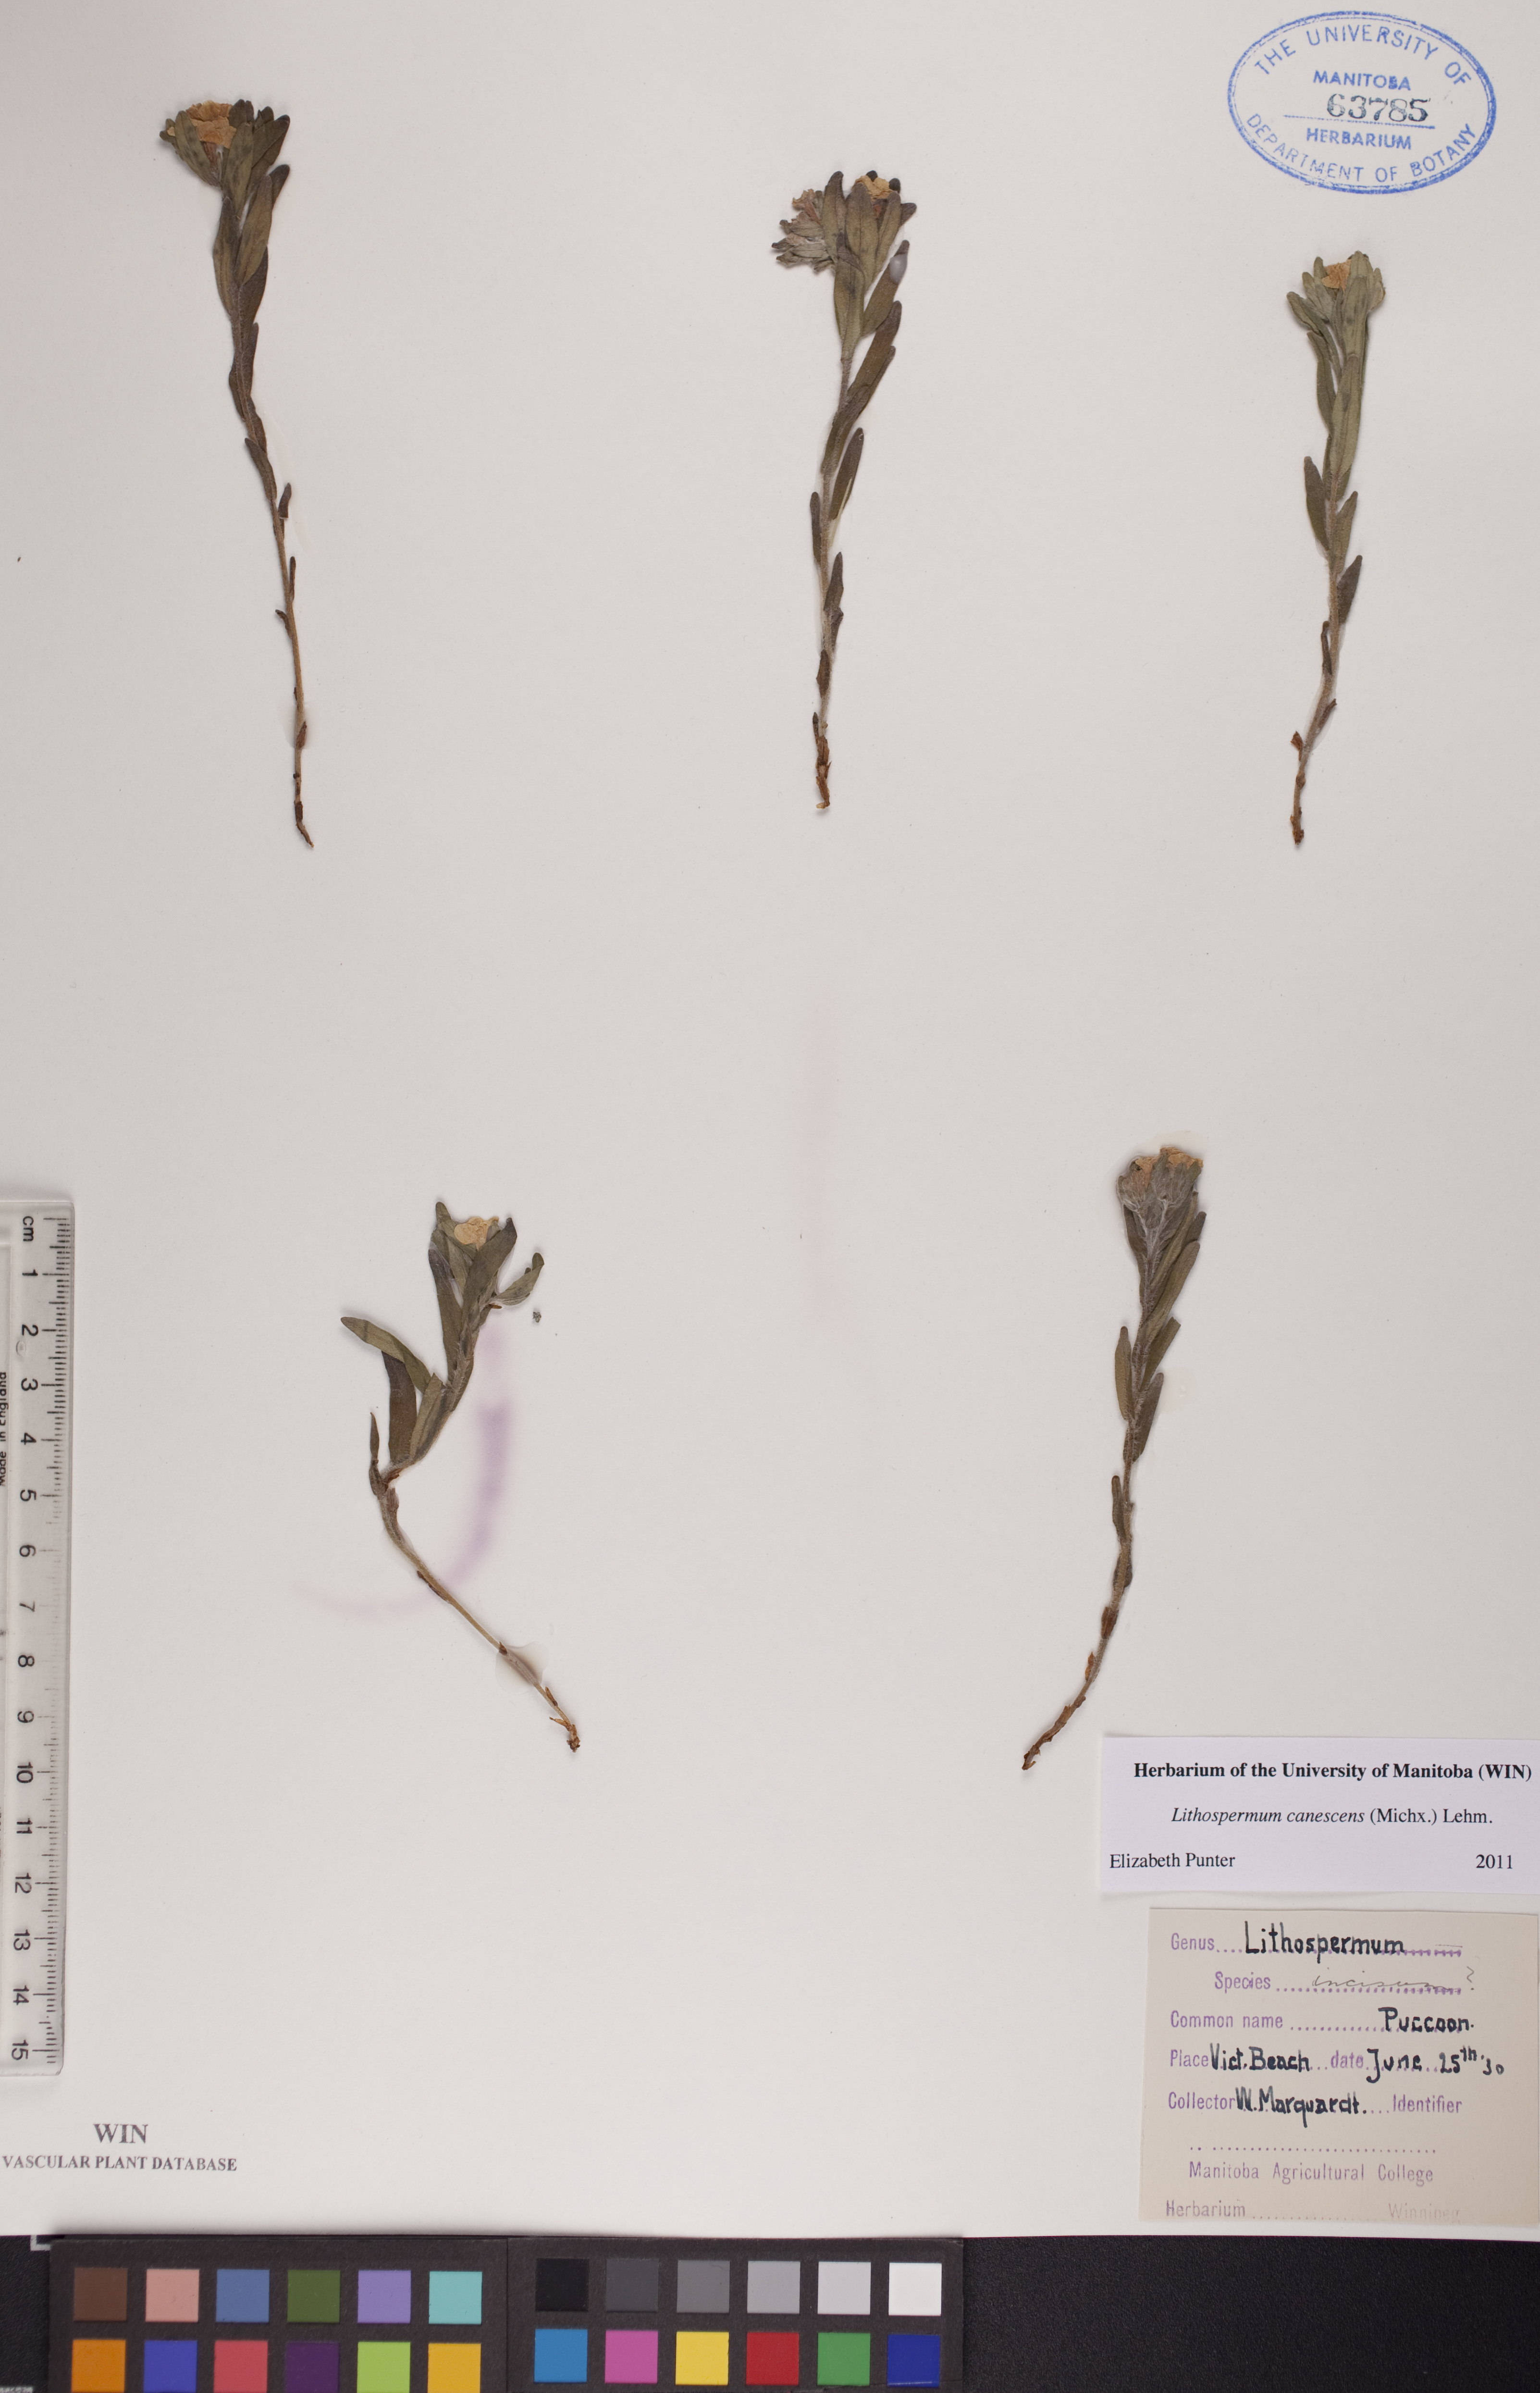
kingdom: Plantae
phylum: Tracheophyta
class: Magnoliopsida
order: Boraginales
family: Boraginaceae
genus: Lithospermum
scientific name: Lithospermum canescens
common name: Hoary puccoon
